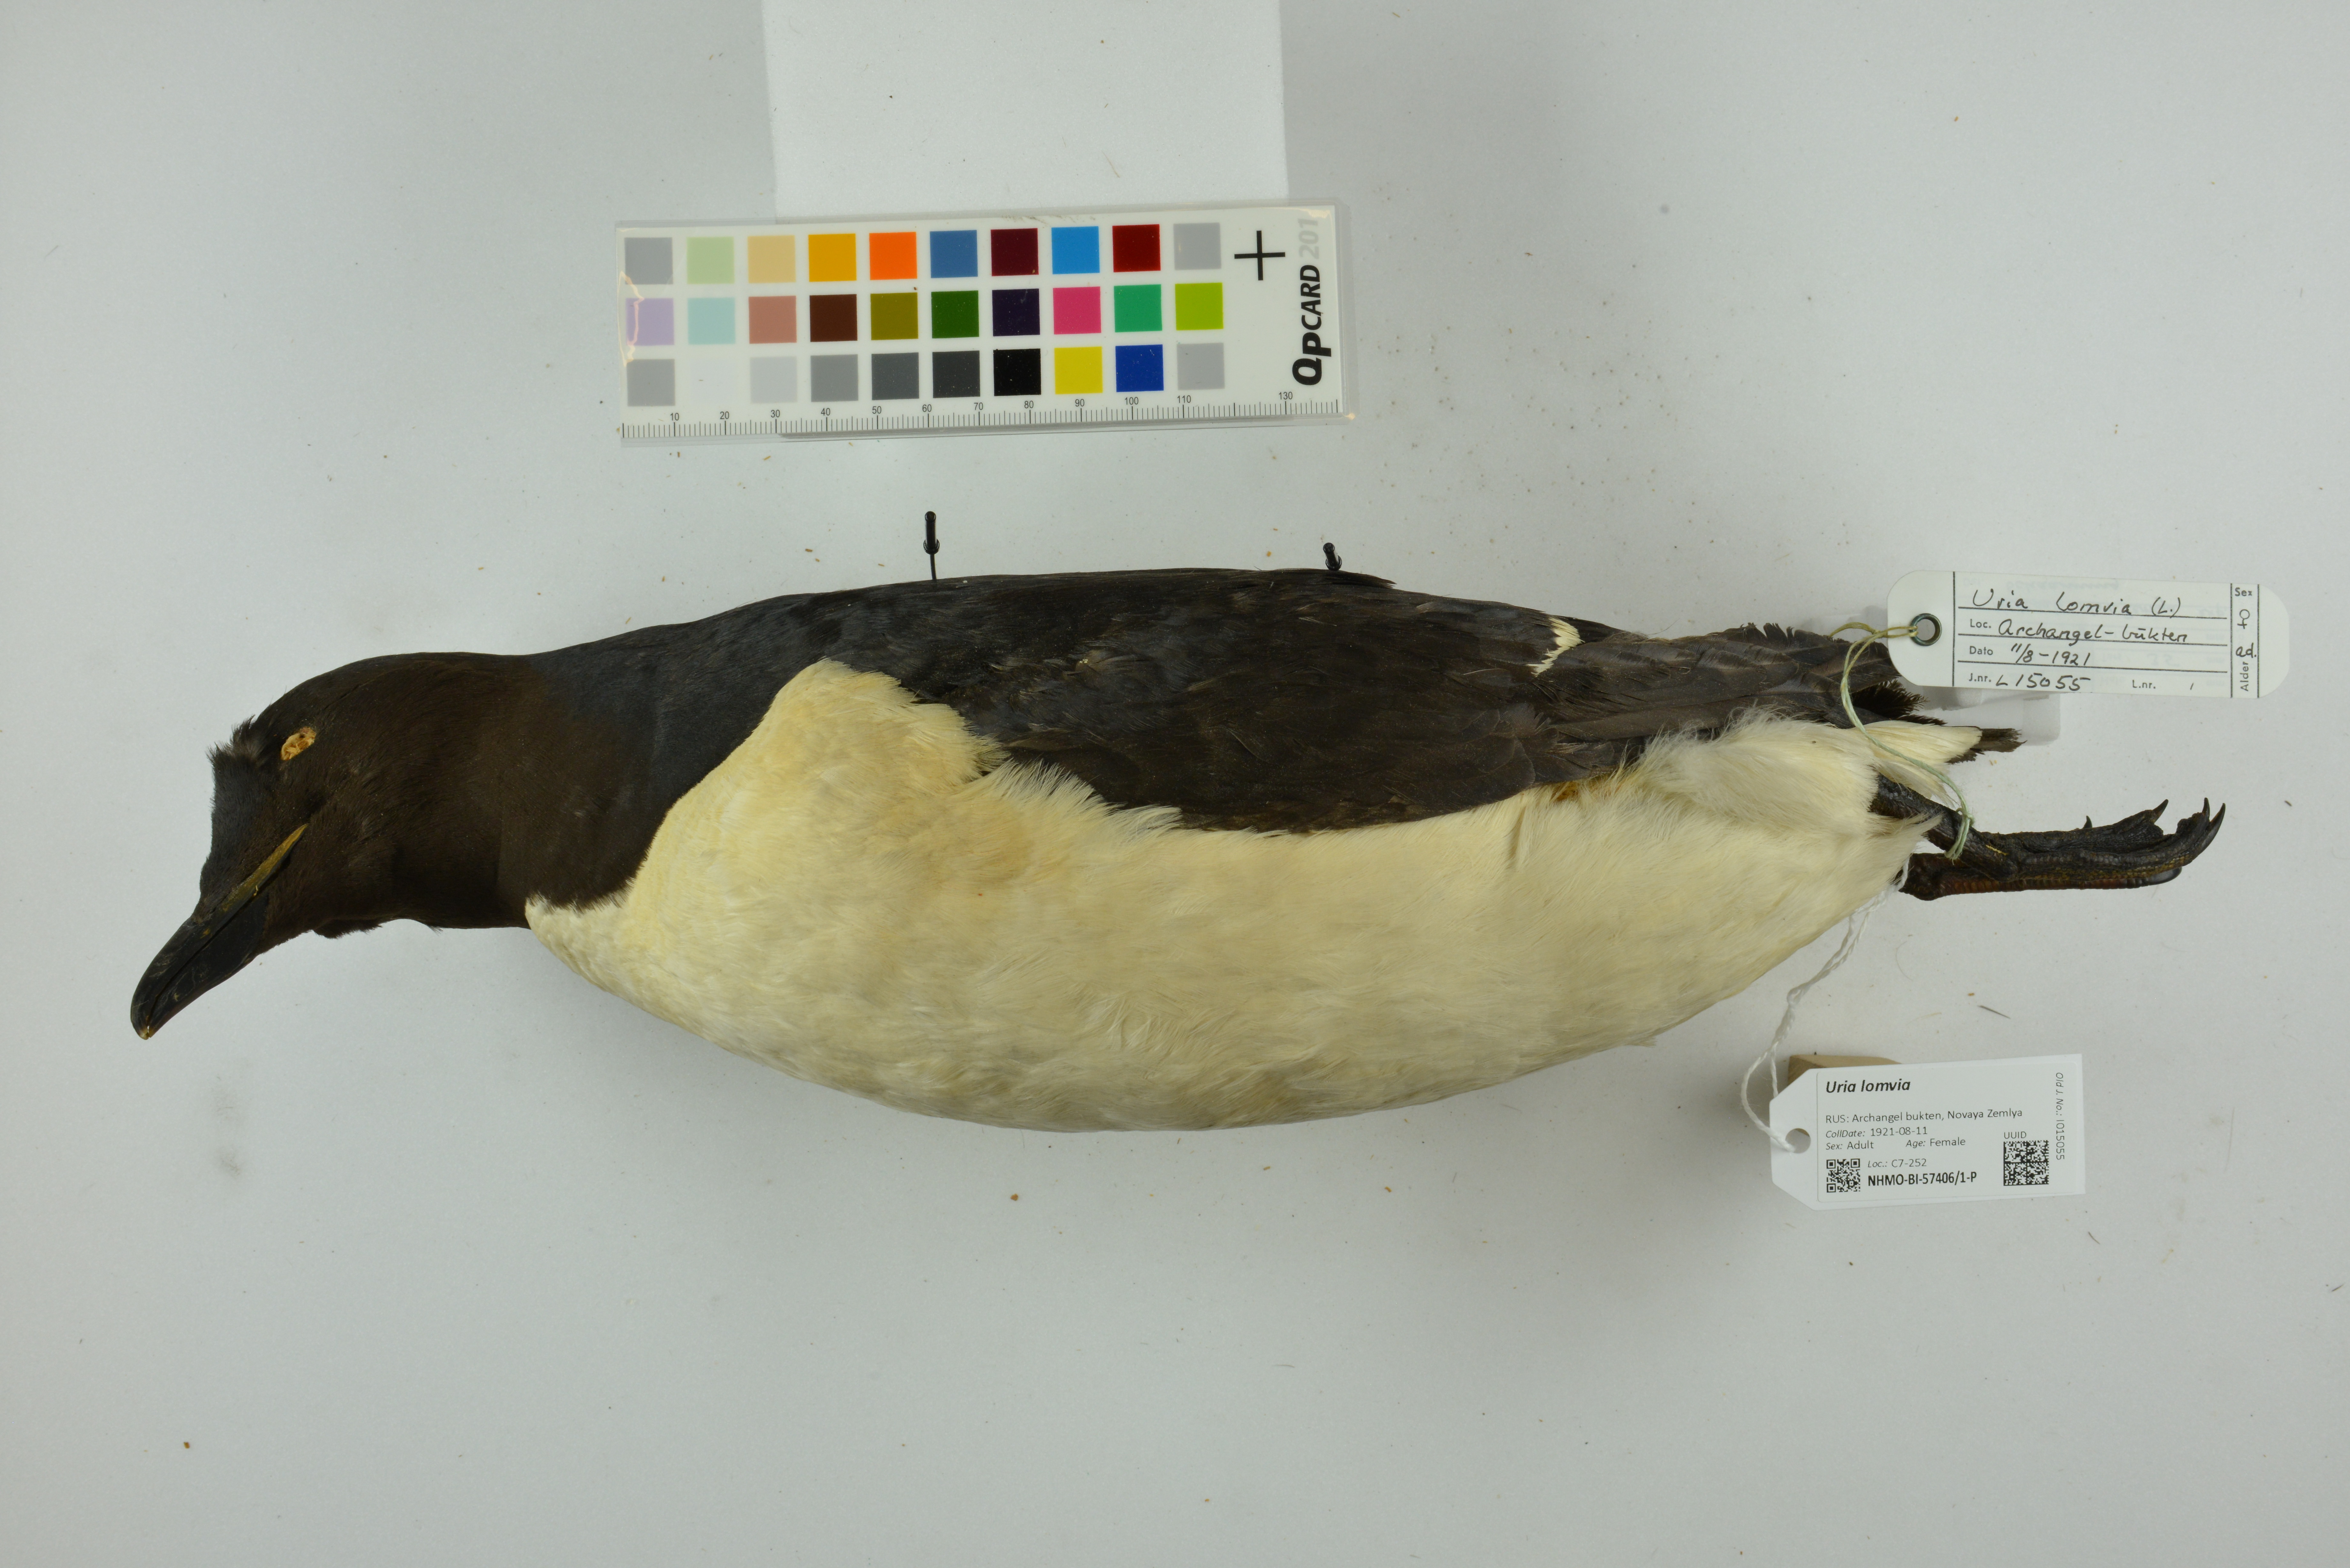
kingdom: Animalia
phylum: Chordata
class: Aves
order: Charadriiformes
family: Alcidae
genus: Uria
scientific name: Uria lomvia
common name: Thick-billed murre
